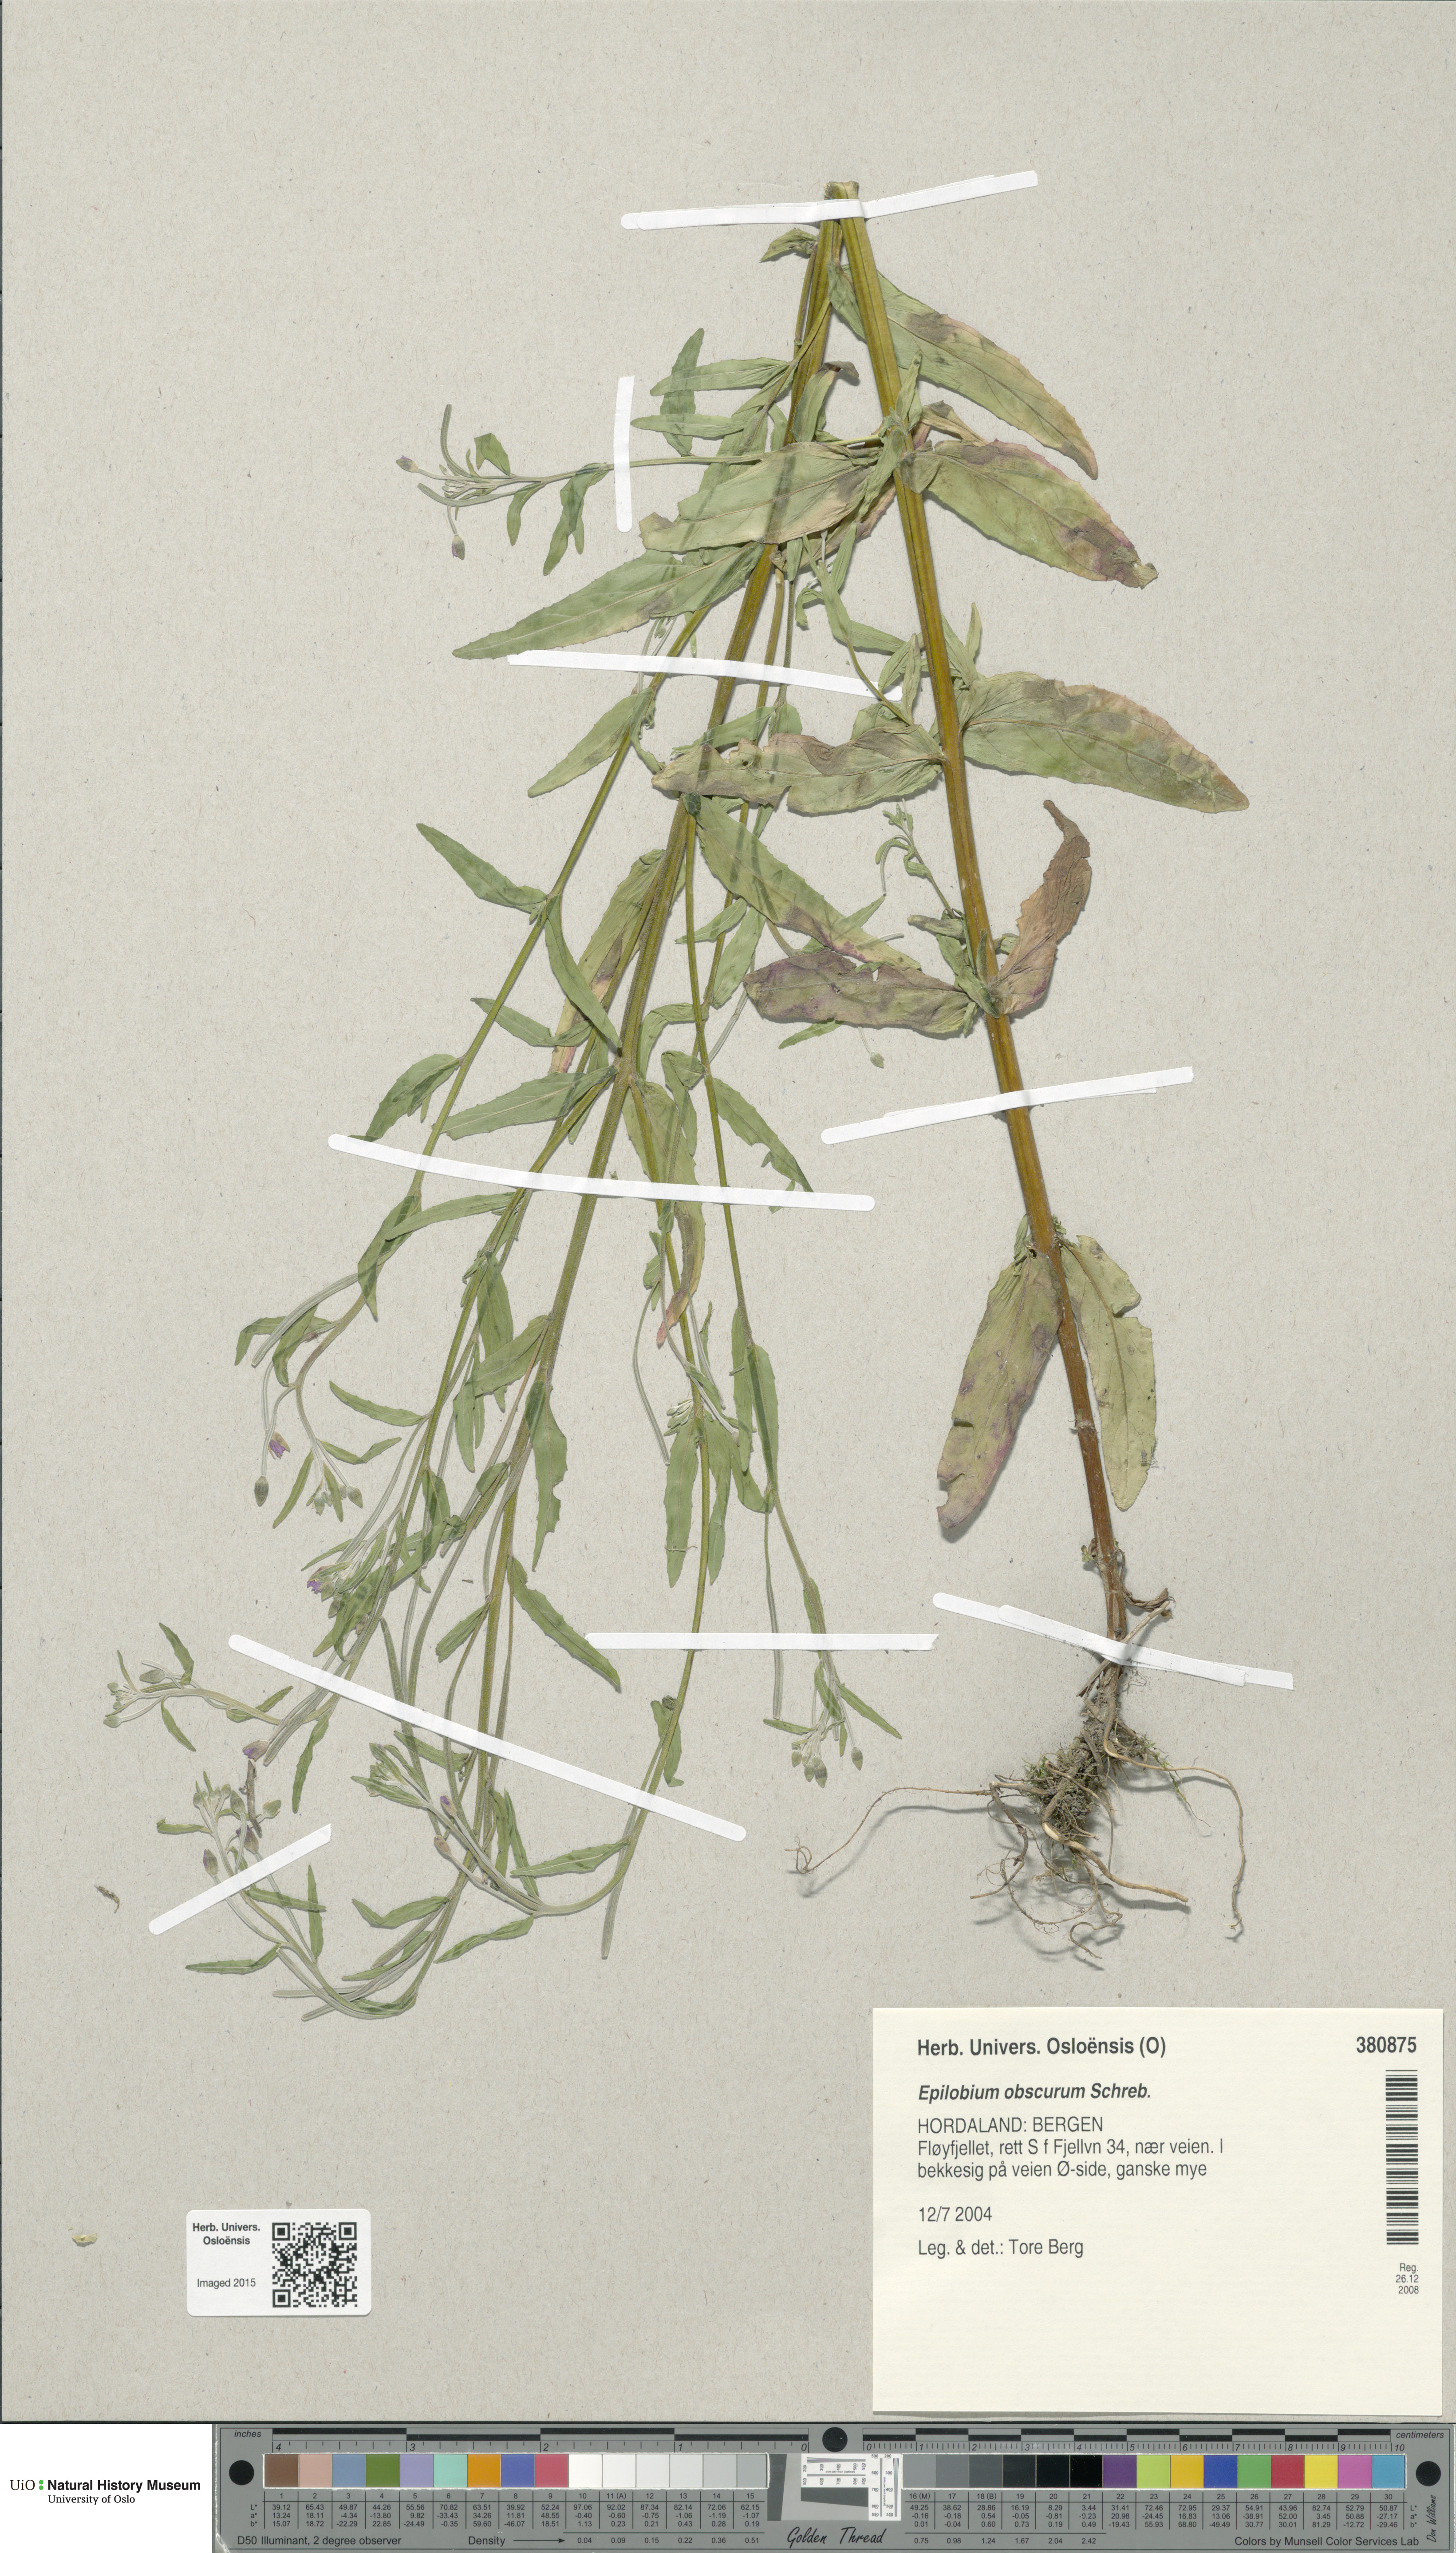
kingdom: Plantae
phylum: Tracheophyta
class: Magnoliopsida
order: Myrtales
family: Onagraceae
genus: Epilobium
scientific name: Epilobium obscurum
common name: Short-fruited willowherb
